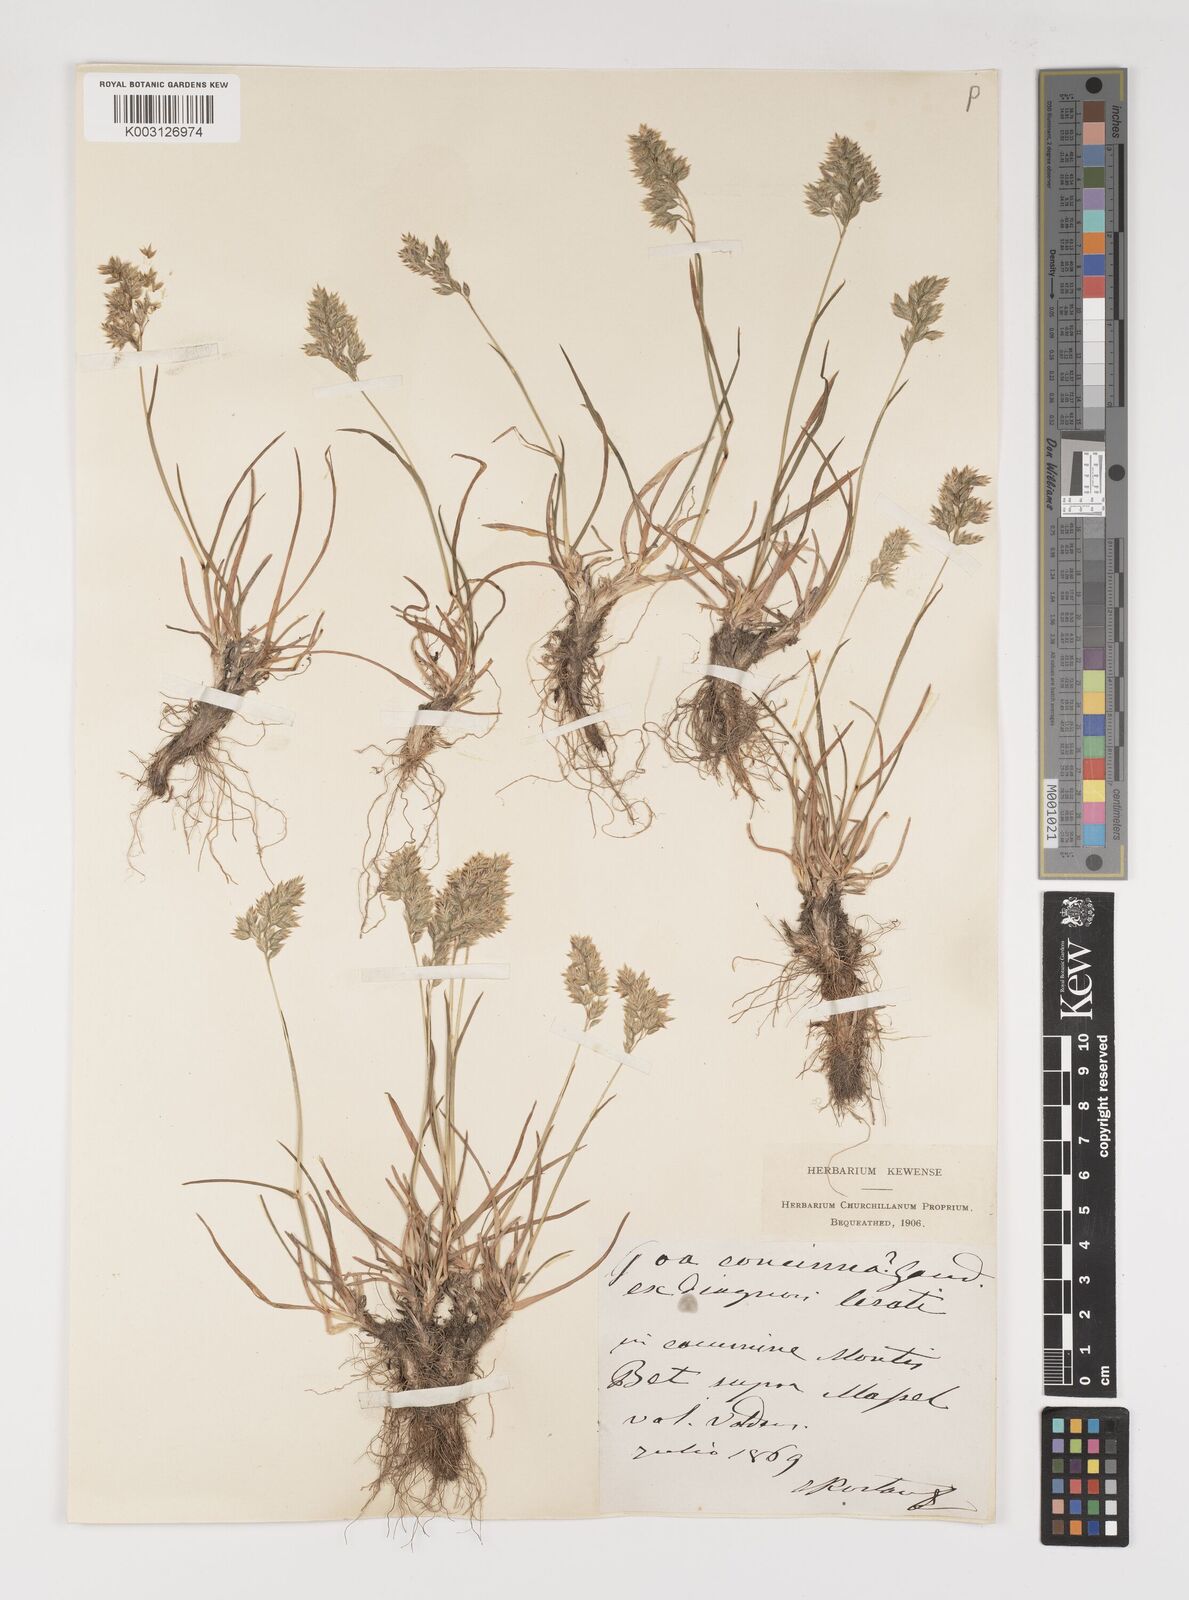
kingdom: Plantae
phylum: Tracheophyta
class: Liliopsida
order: Poales
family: Poaceae
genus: Poa
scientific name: Poa perconcinna
